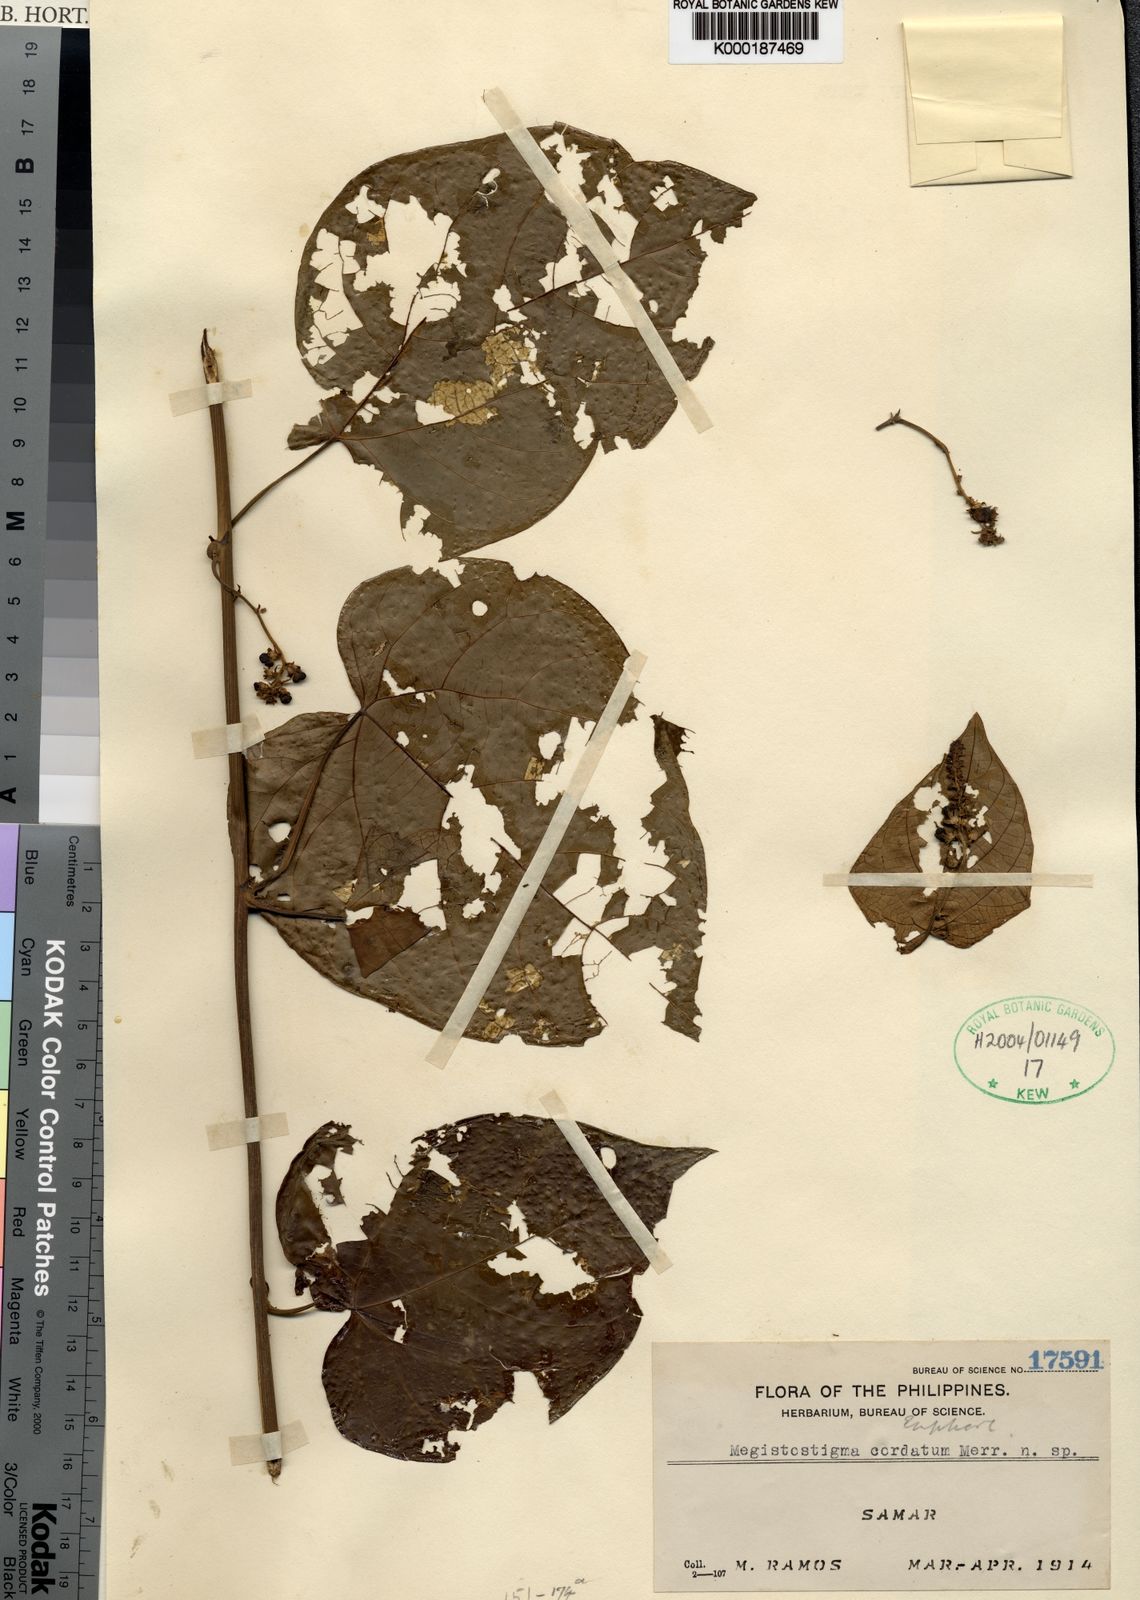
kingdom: Plantae
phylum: Tracheophyta
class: Magnoliopsida
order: Malpighiales
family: Euphorbiaceae
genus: Megistostigma
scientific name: Megistostigma cordatum
